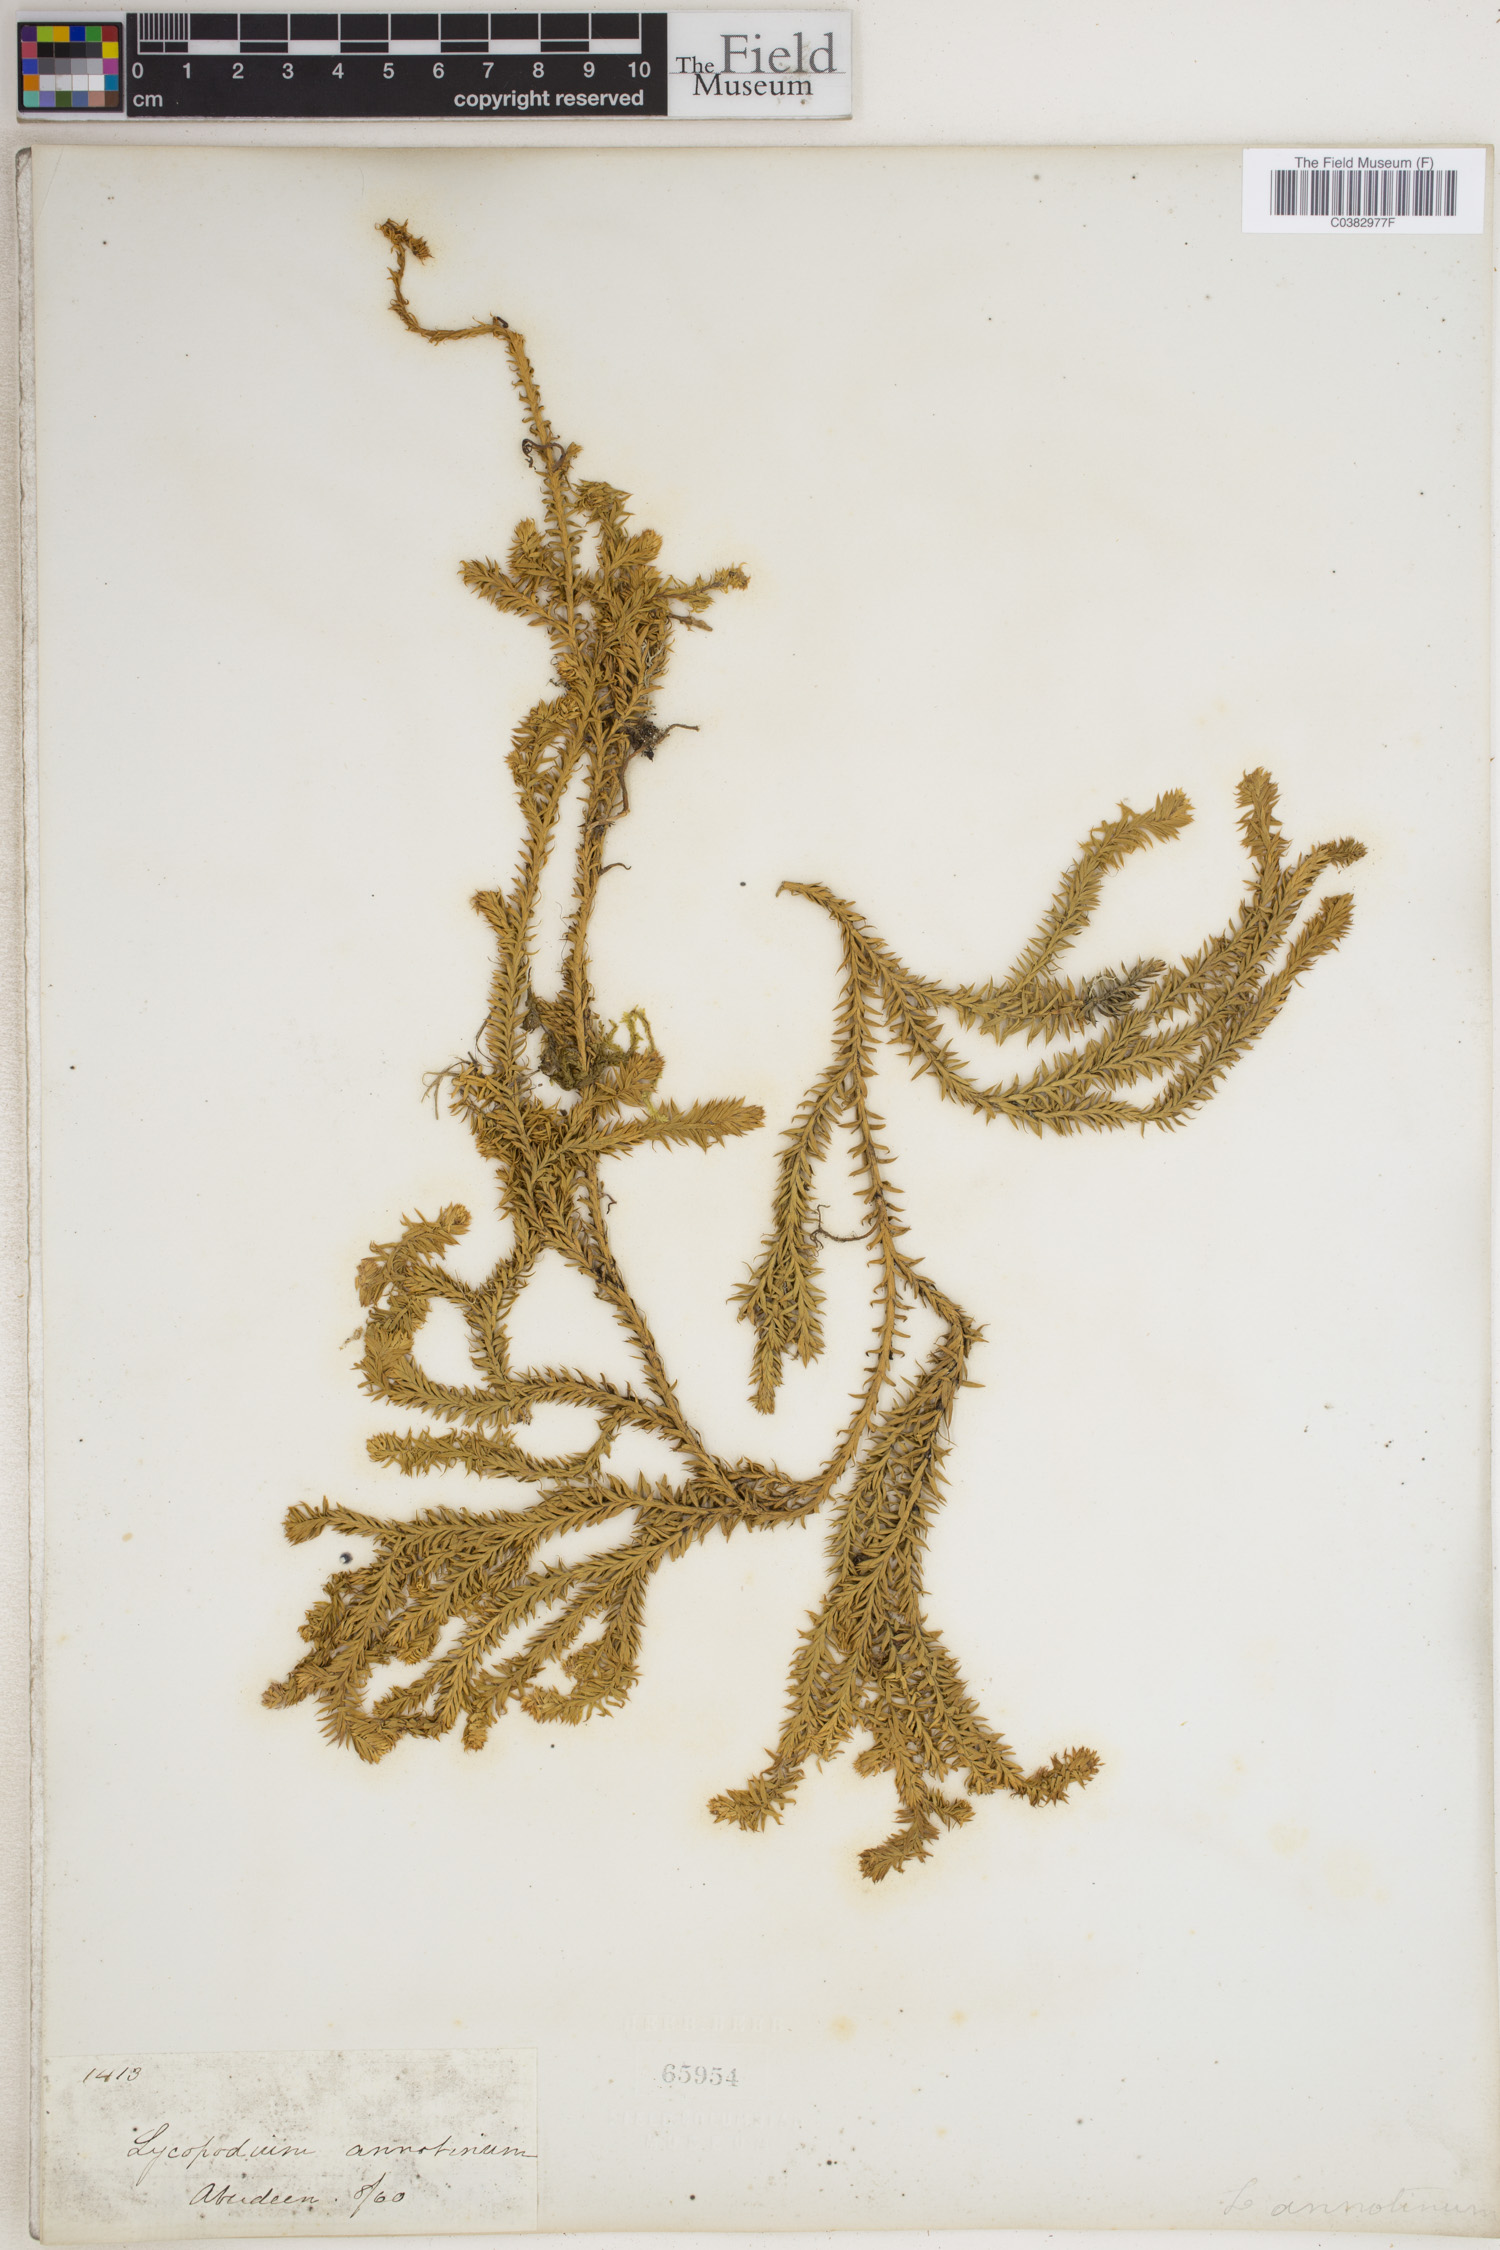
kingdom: Plantae
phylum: Tracheophyta
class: Lycopodiopsida
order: Lycopodiales
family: Lycopodiaceae
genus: Spinulum
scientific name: Spinulum annotinum
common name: Interrupted club-moss
